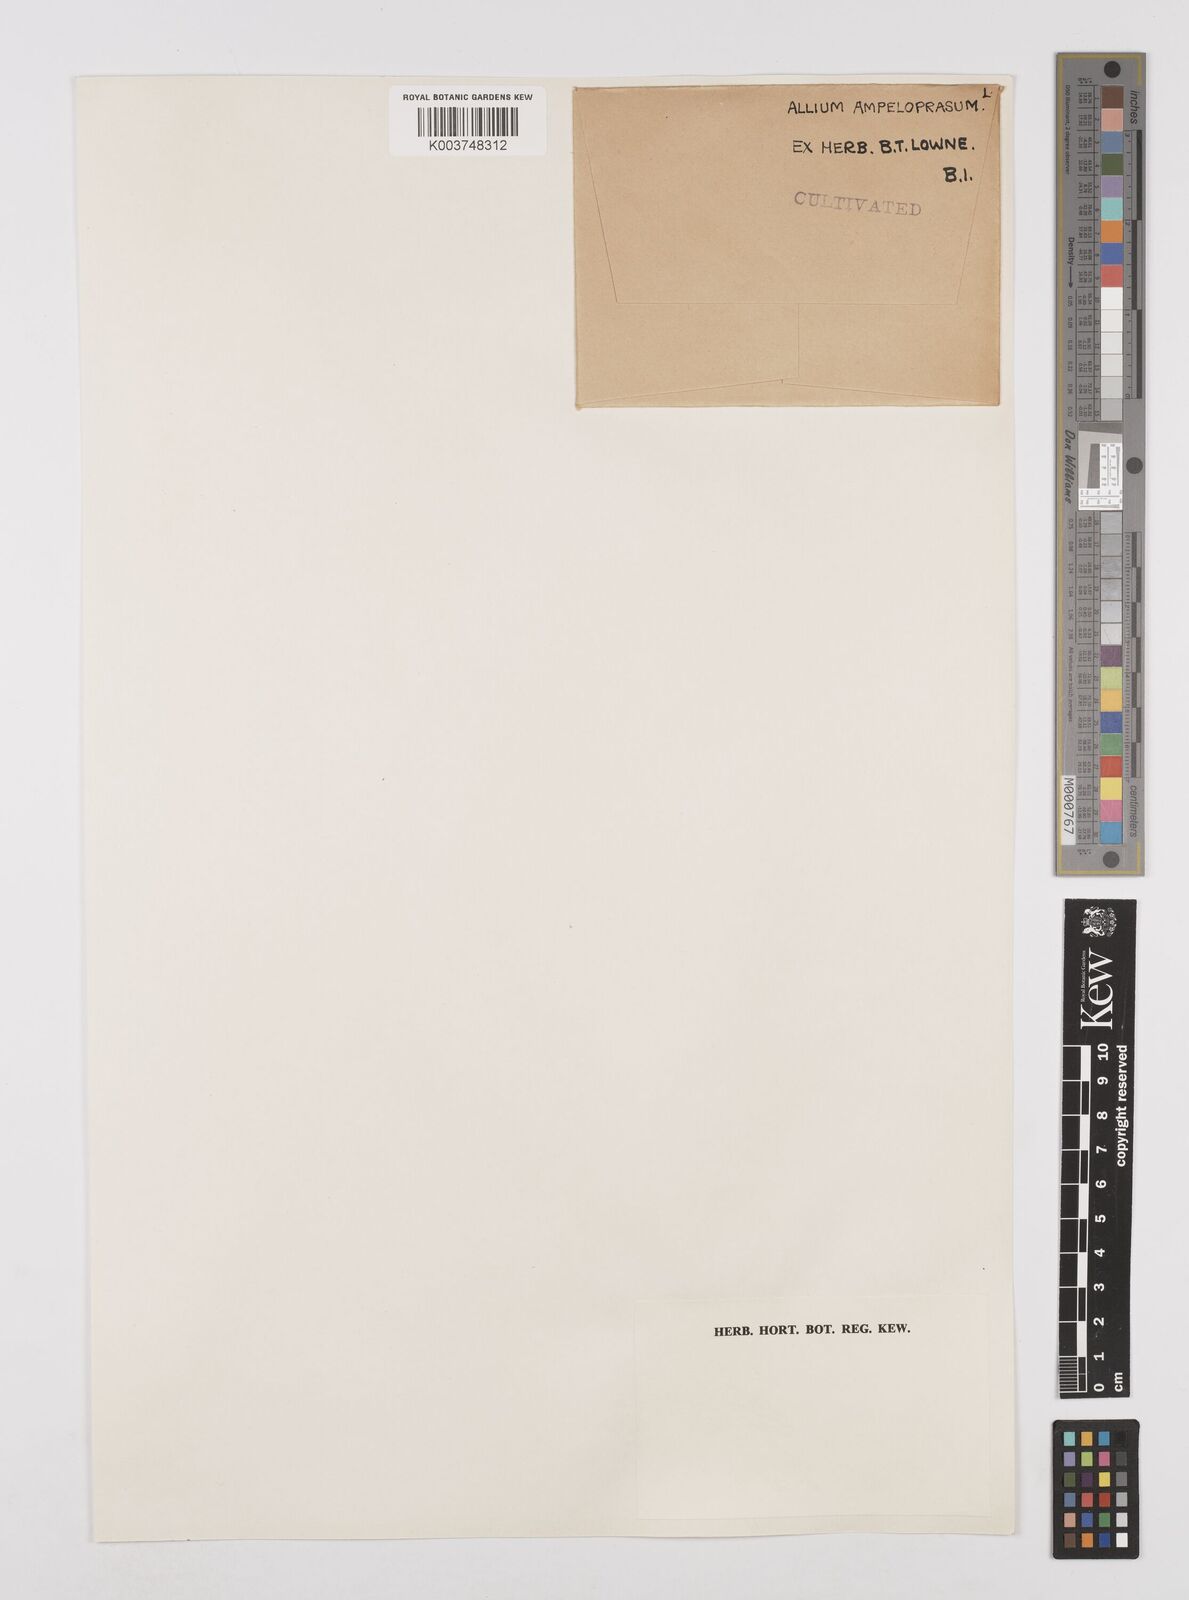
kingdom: Plantae
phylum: Tracheophyta
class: Liliopsida
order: Asparagales
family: Amaryllidaceae
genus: Allium
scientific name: Allium ampeloprasum
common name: Wild leek
